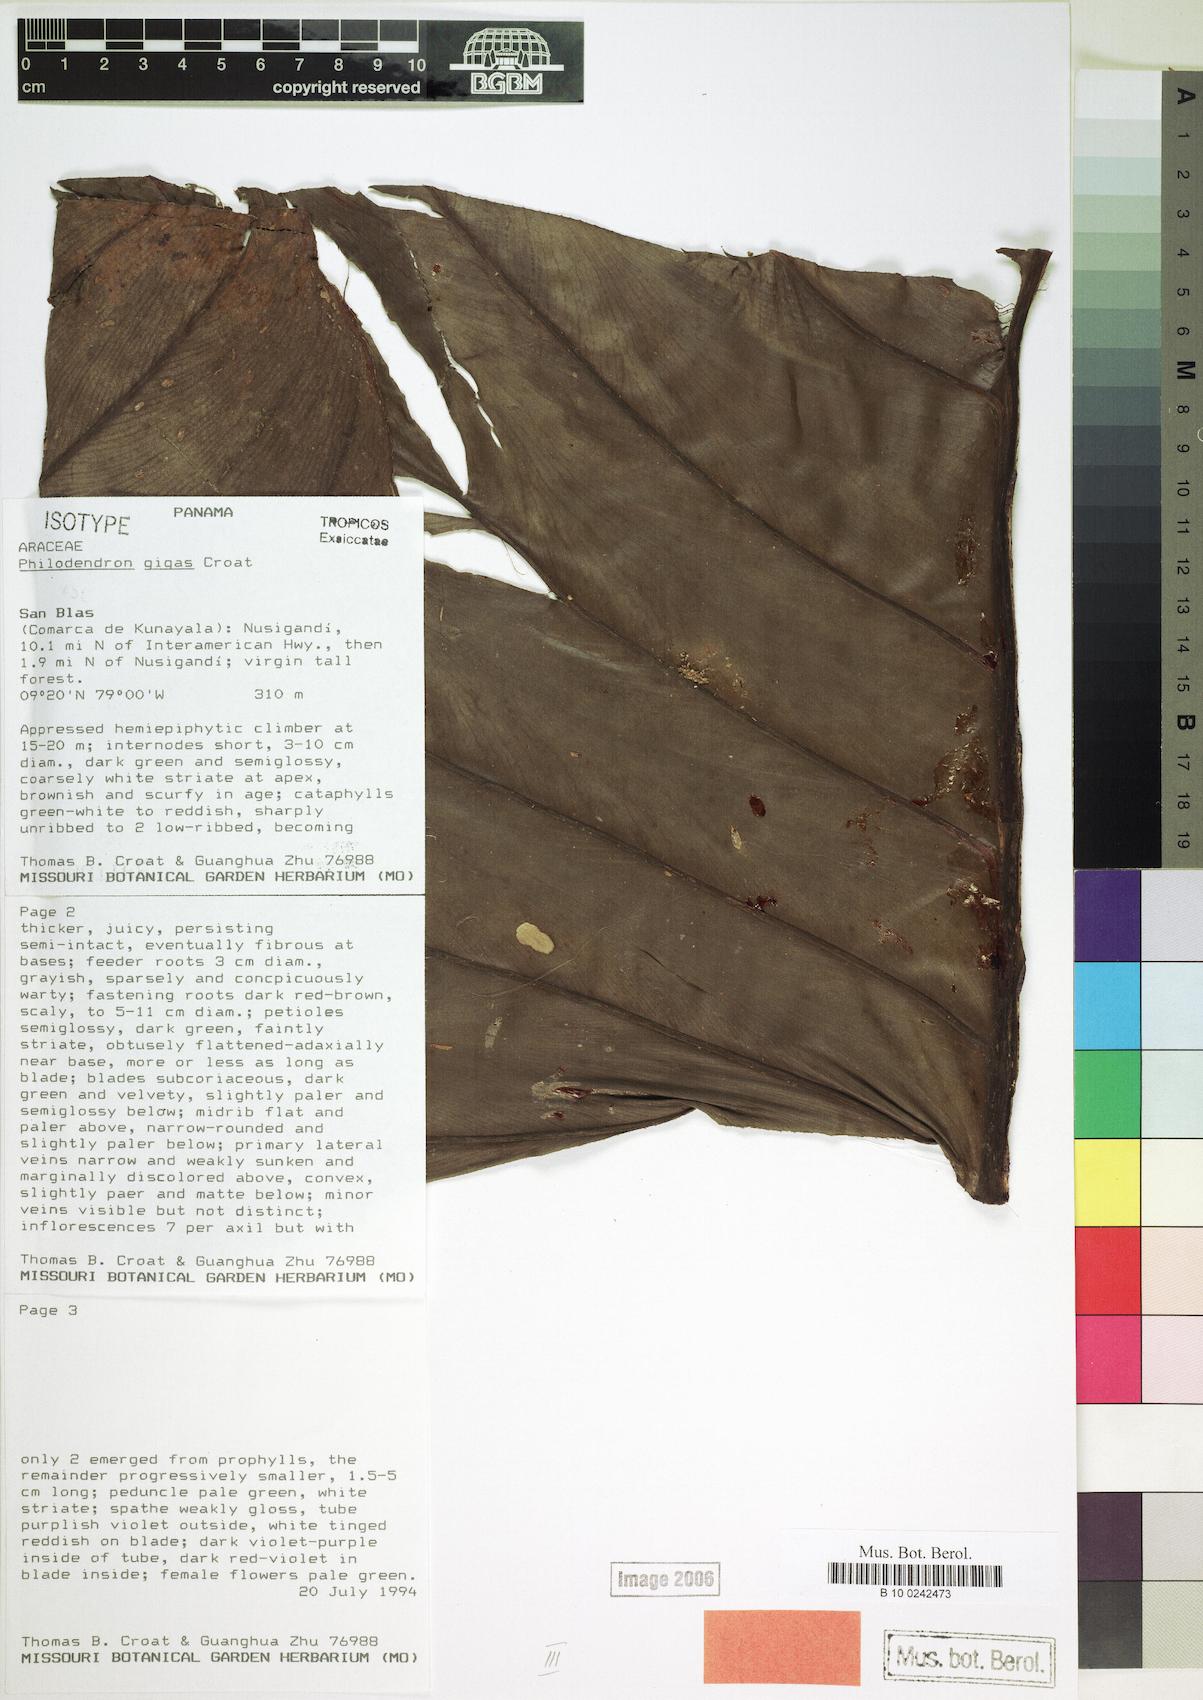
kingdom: Plantae
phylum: Tracheophyta
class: Liliopsida
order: Alismatales
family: Araceae
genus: Philodendron
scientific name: Philodendron gigas
